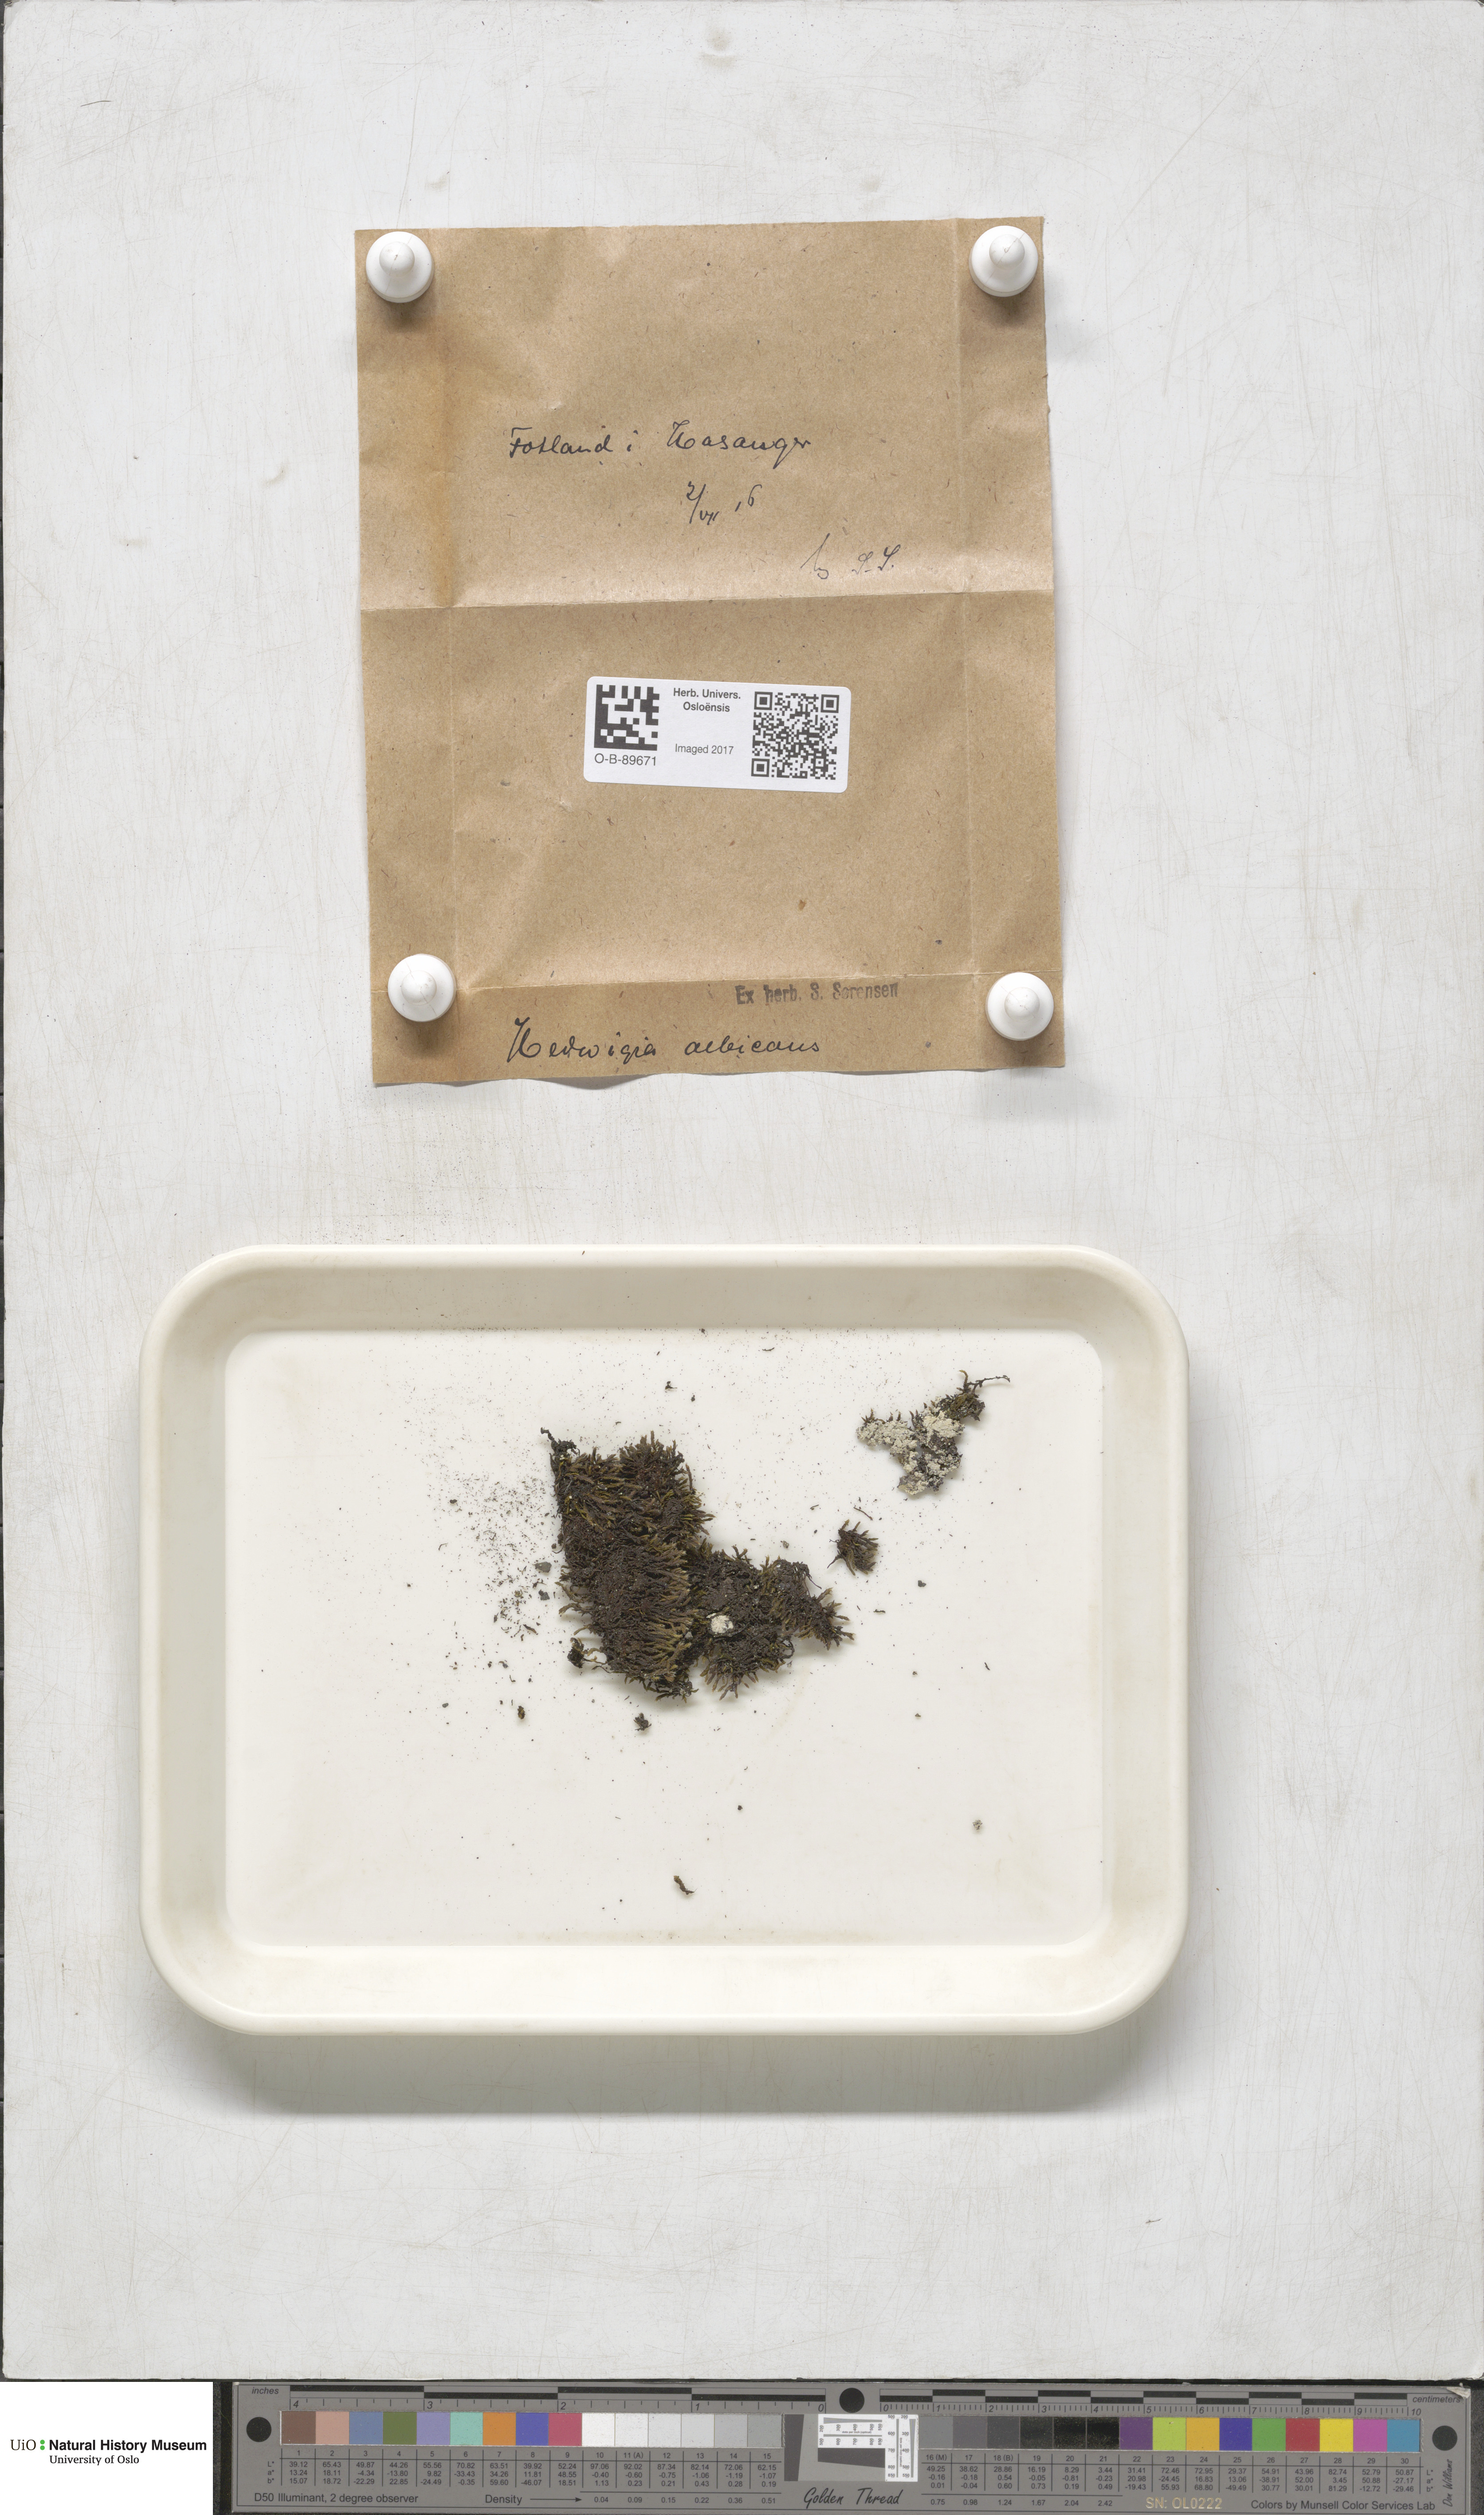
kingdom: Plantae
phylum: Bryophyta
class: Bryopsida
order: Hedwigiales
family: Hedwigiaceae
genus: Hedwigia
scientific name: Hedwigia ciliata
